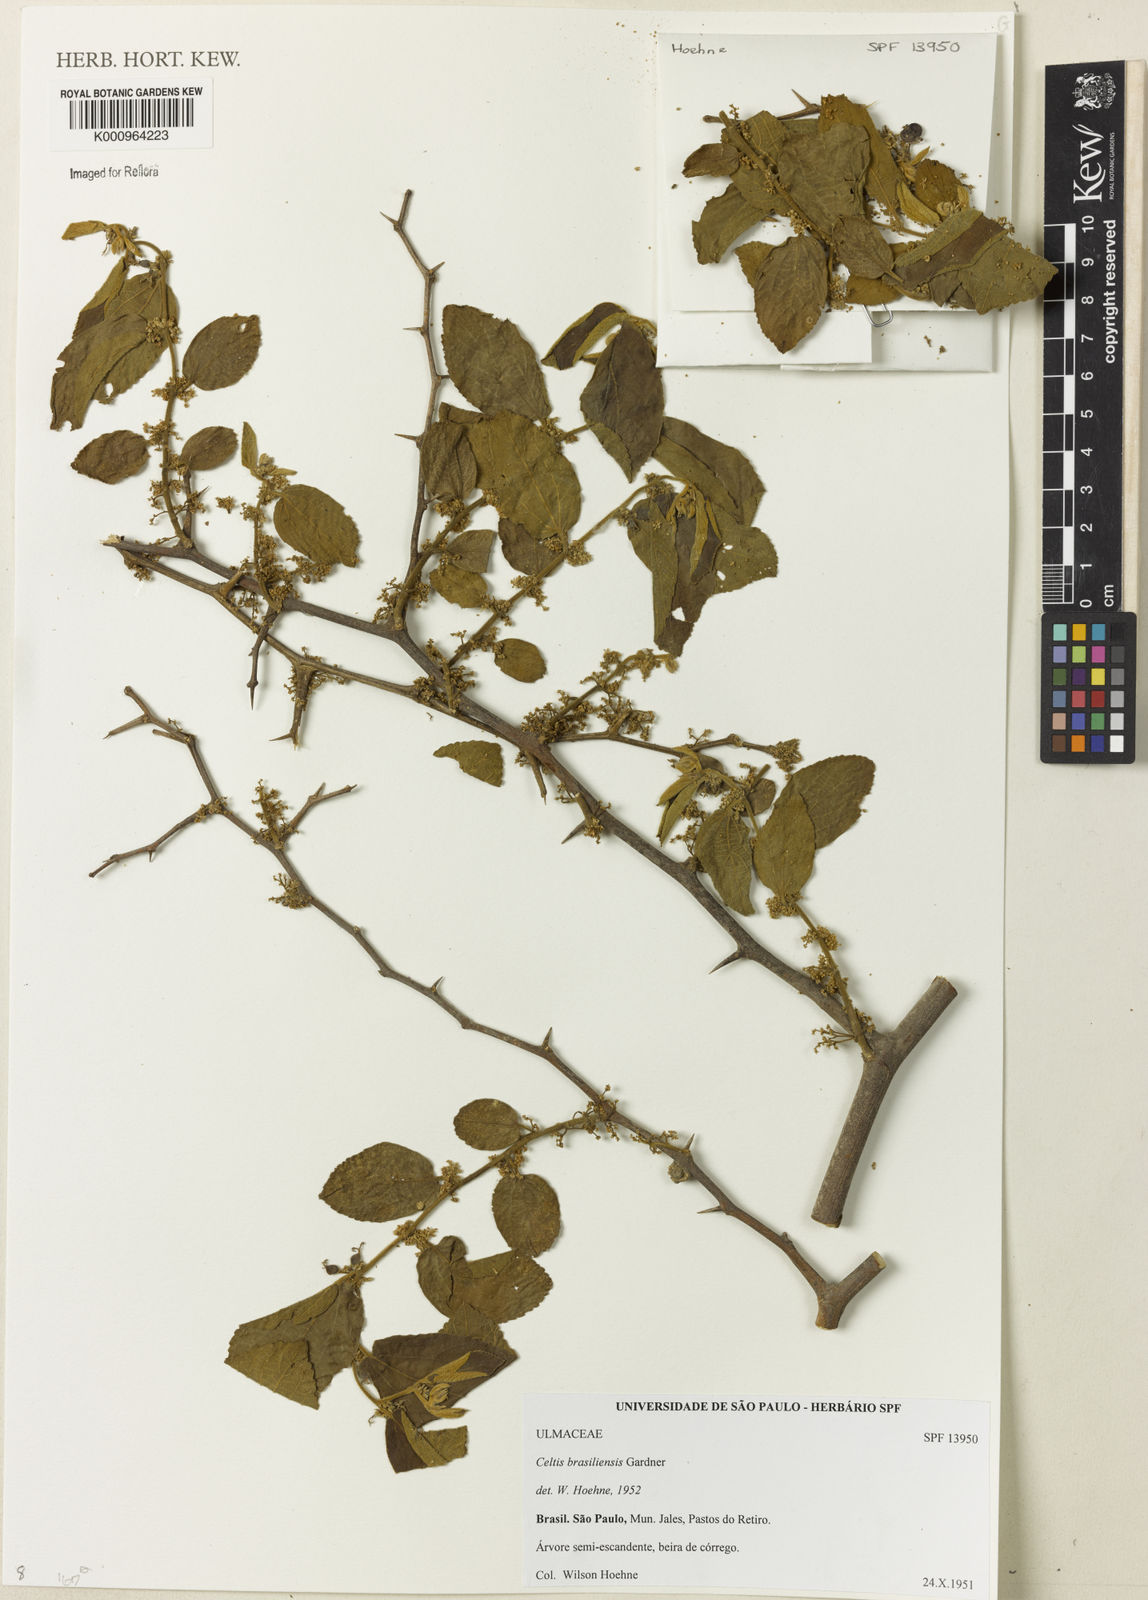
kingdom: Plantae
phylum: Tracheophyta
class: Magnoliopsida
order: Rosales
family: Cannabaceae
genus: Celtis
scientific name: Celtis brasiliensis
